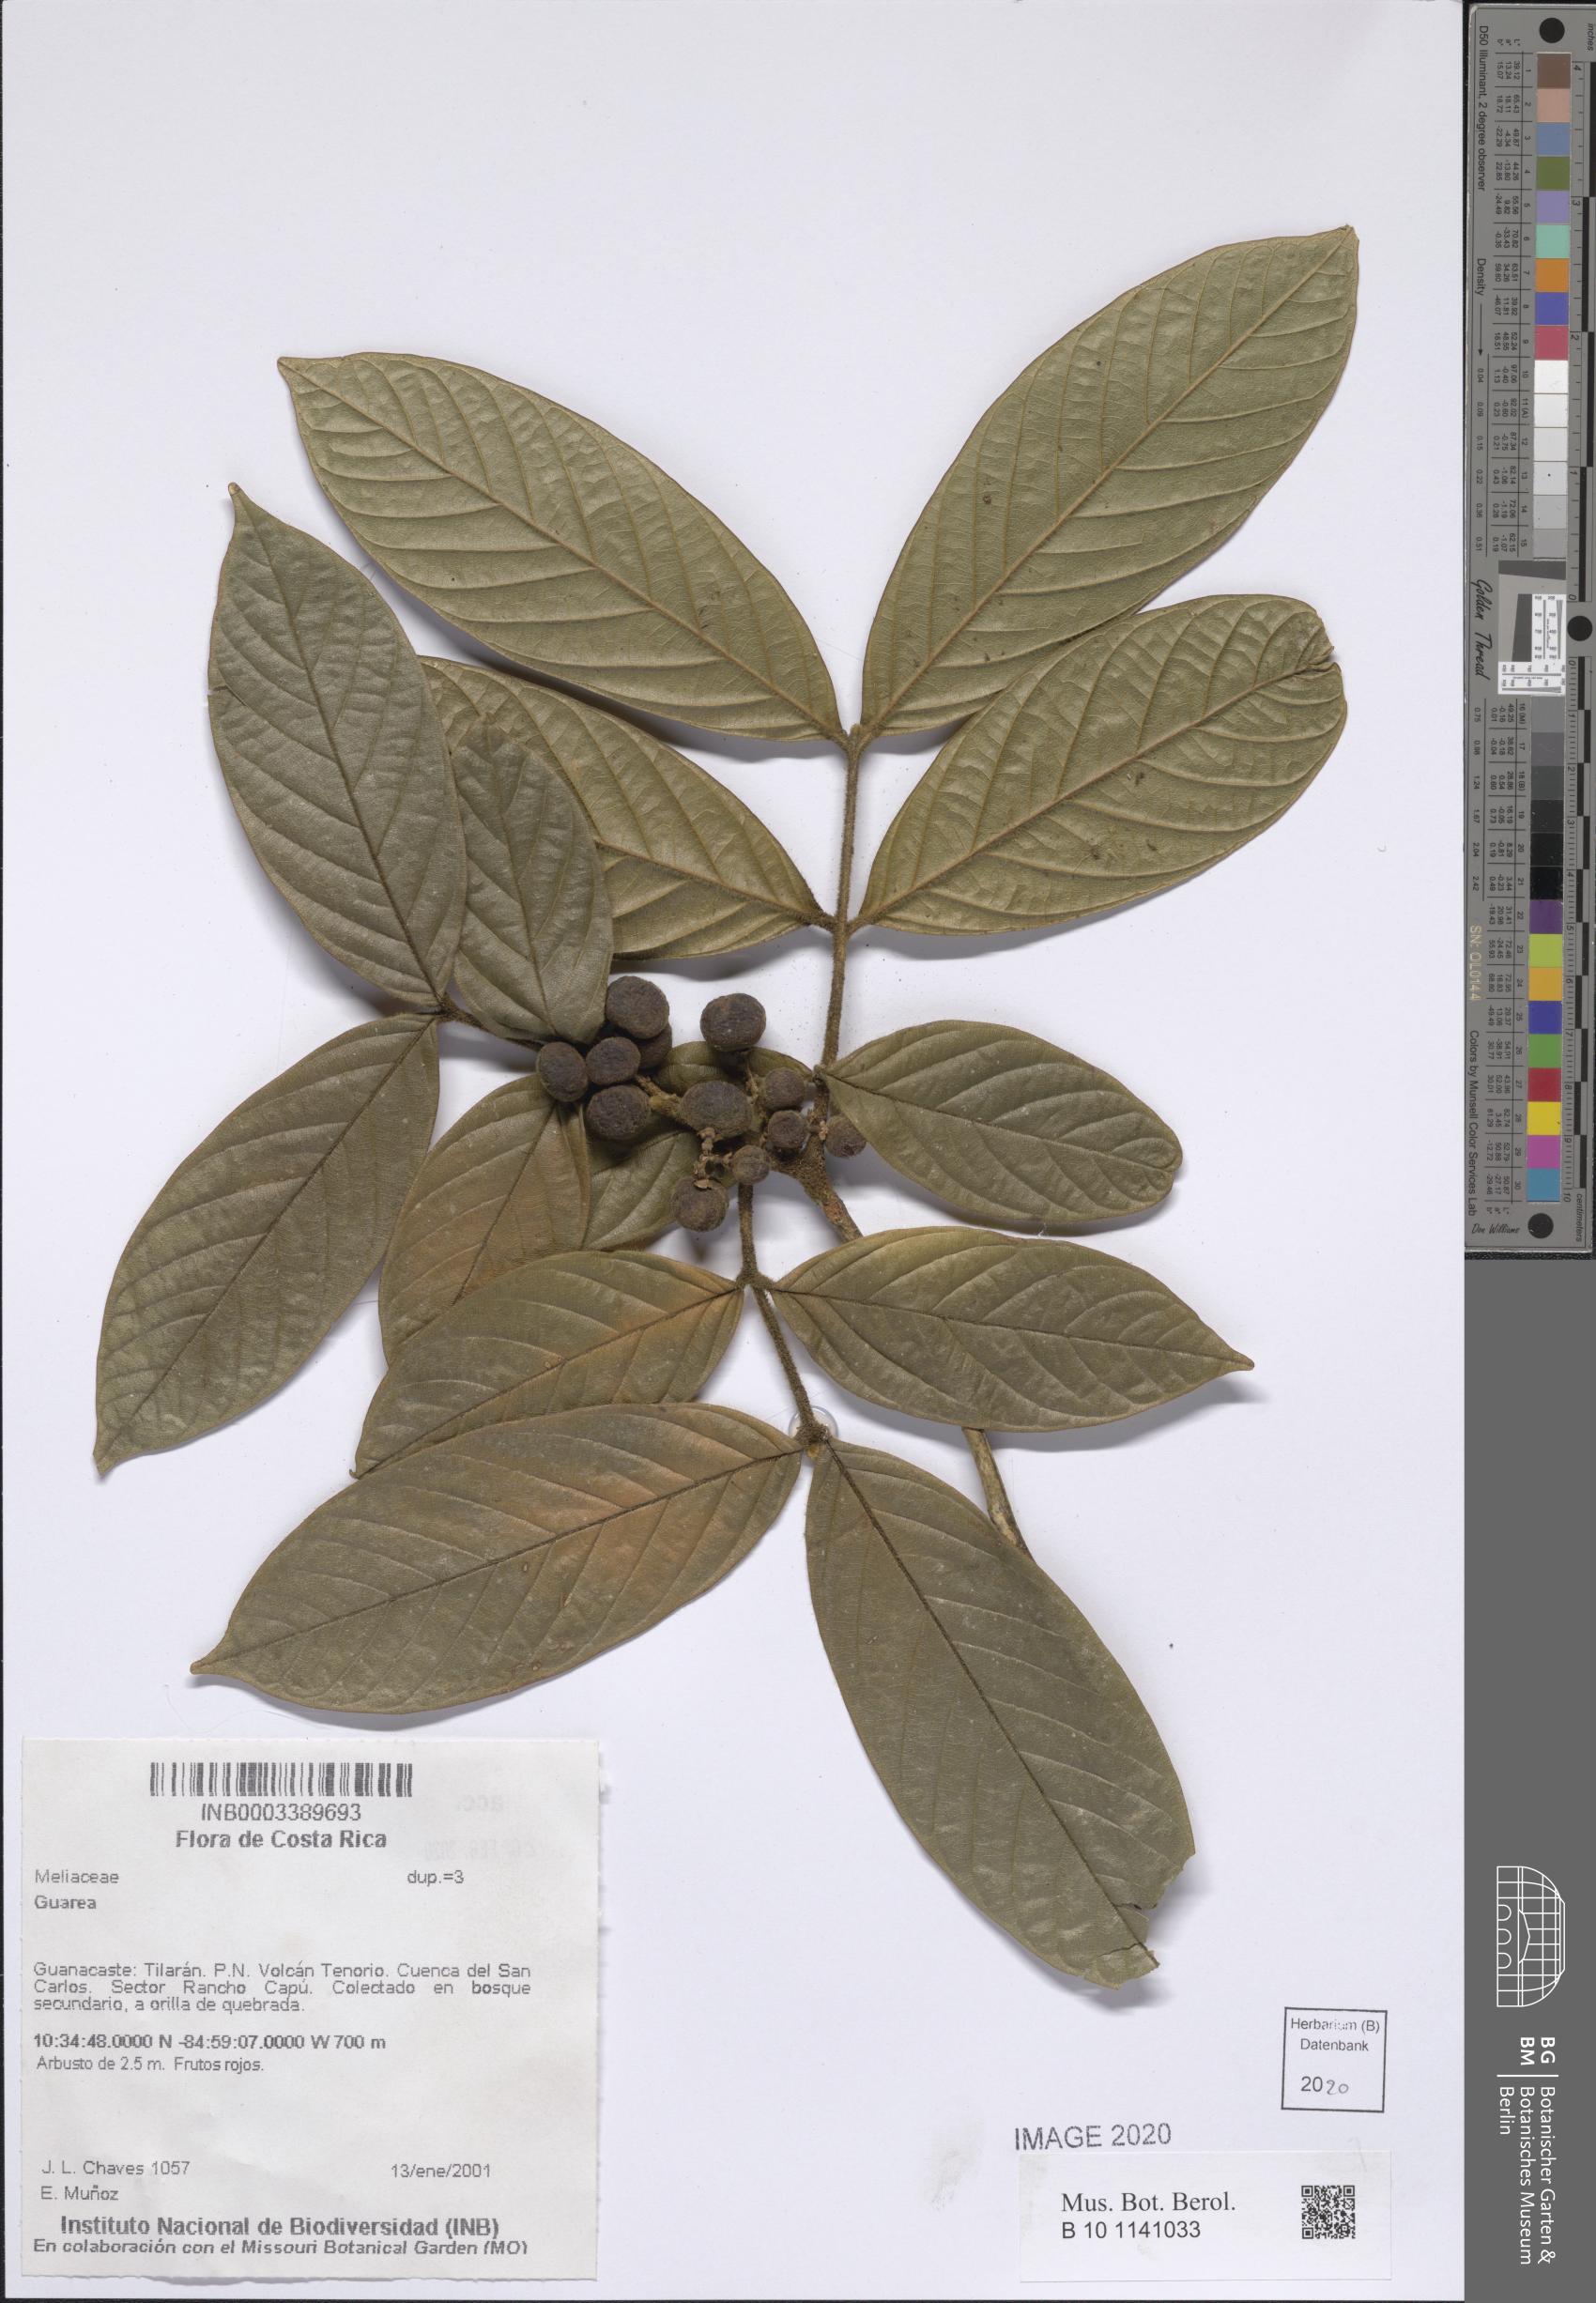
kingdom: Plantae
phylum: Tracheophyta
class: Magnoliopsida
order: Sapindales
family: Meliaceae
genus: Guarea
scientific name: Guarea
